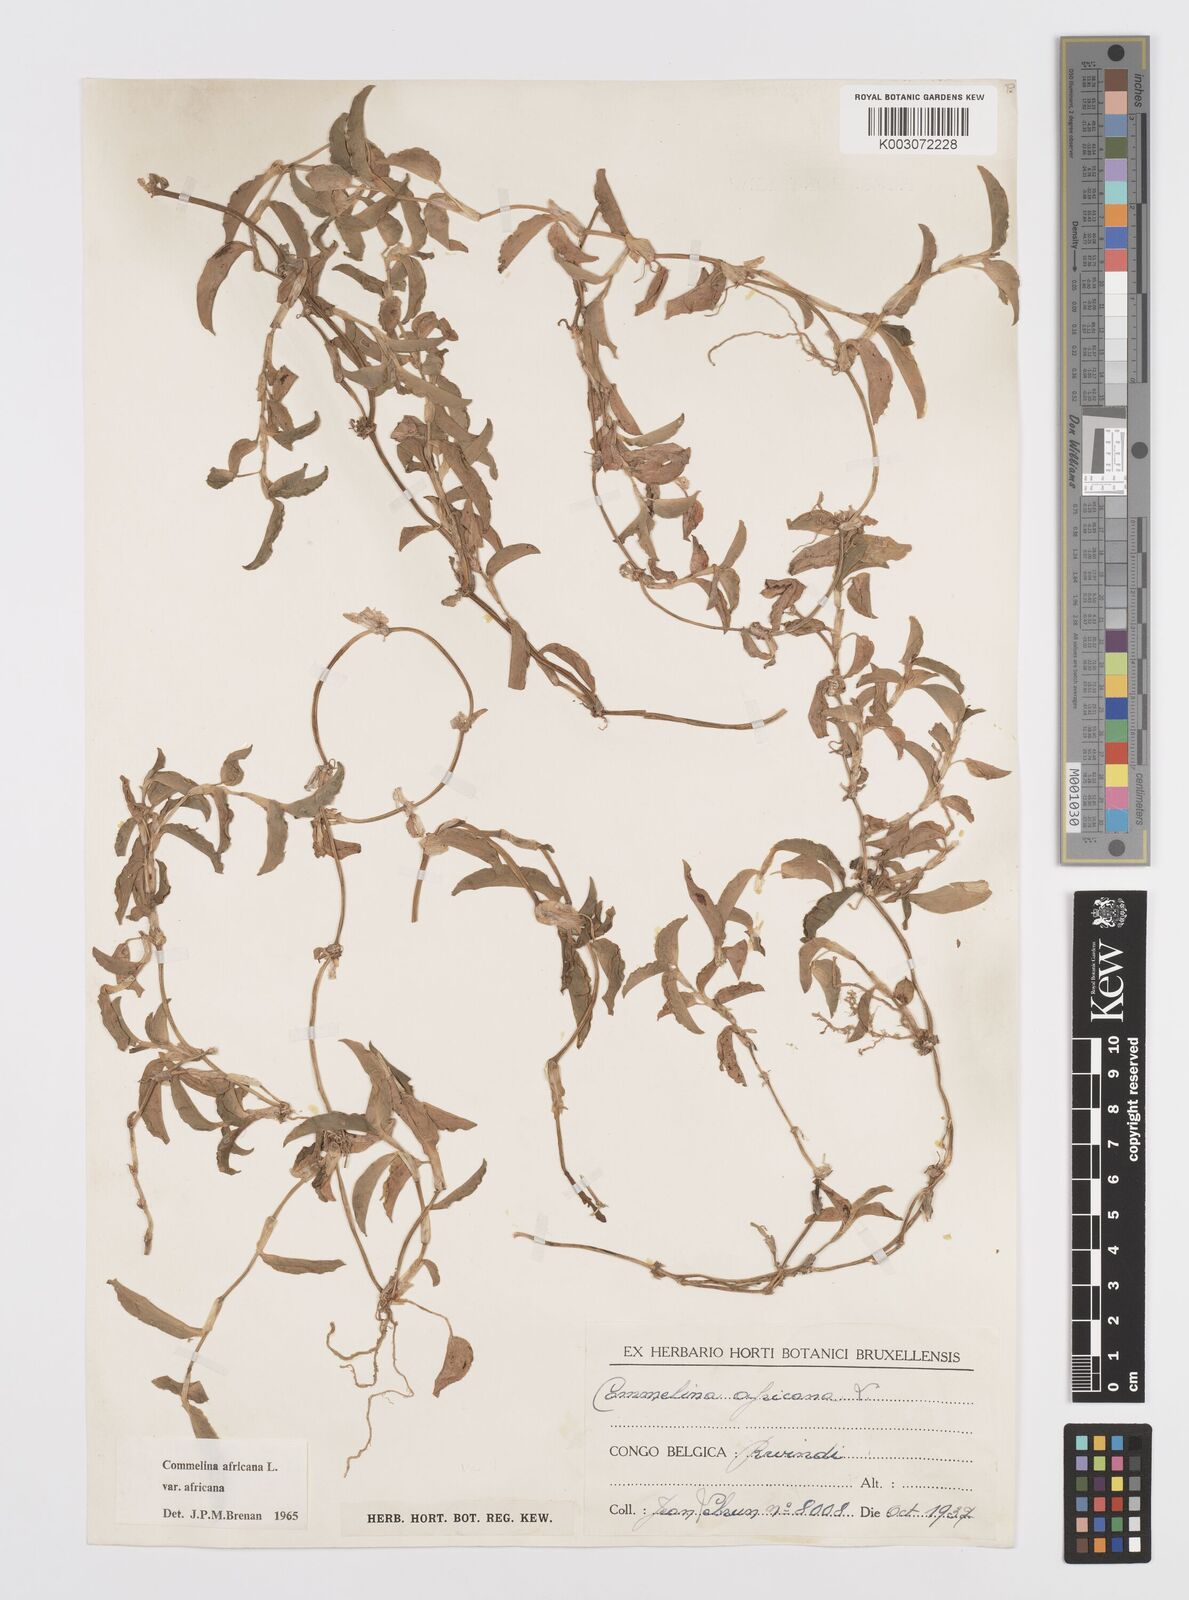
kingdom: Plantae
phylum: Tracheophyta
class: Liliopsida
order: Commelinales
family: Commelinaceae
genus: Commelina
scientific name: Commelina africana
